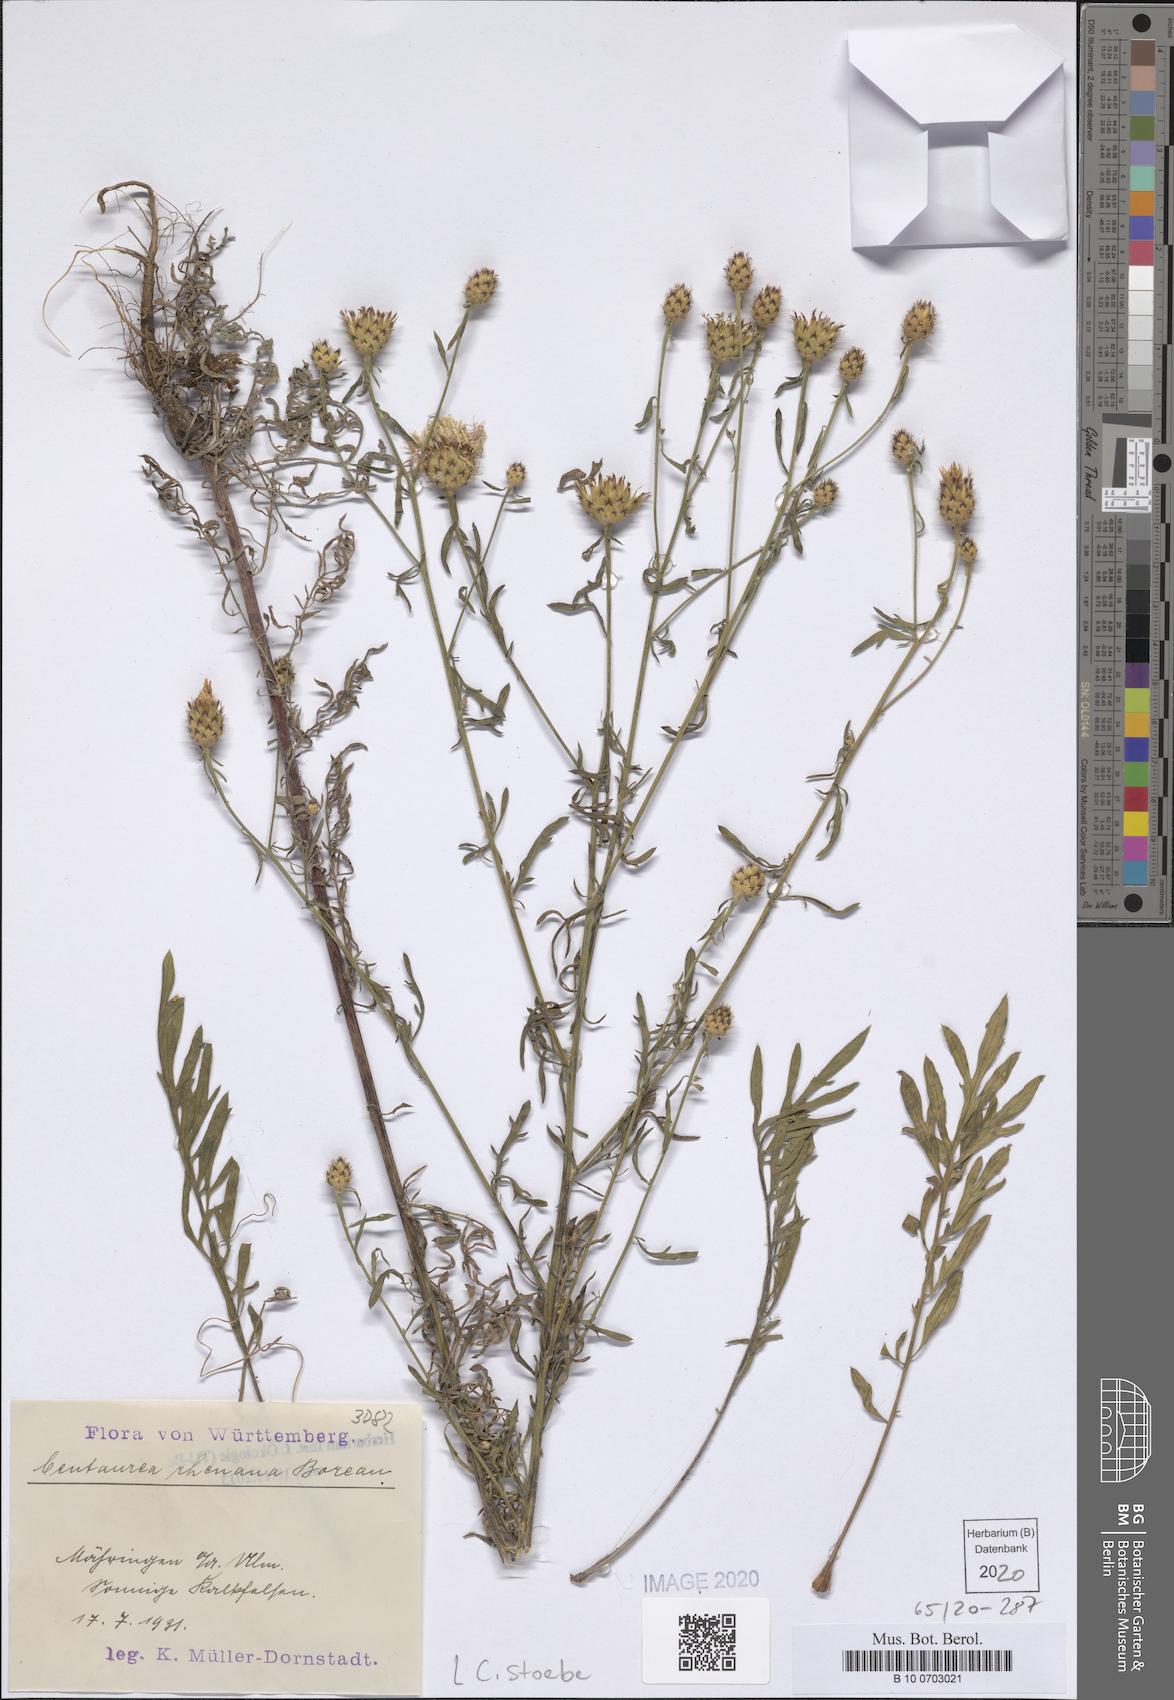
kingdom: Plantae
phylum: Tracheophyta
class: Magnoliopsida
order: Asterales
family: Asteraceae
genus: Centaurea
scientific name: Centaurea stoebe
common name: Spotted knapweed
